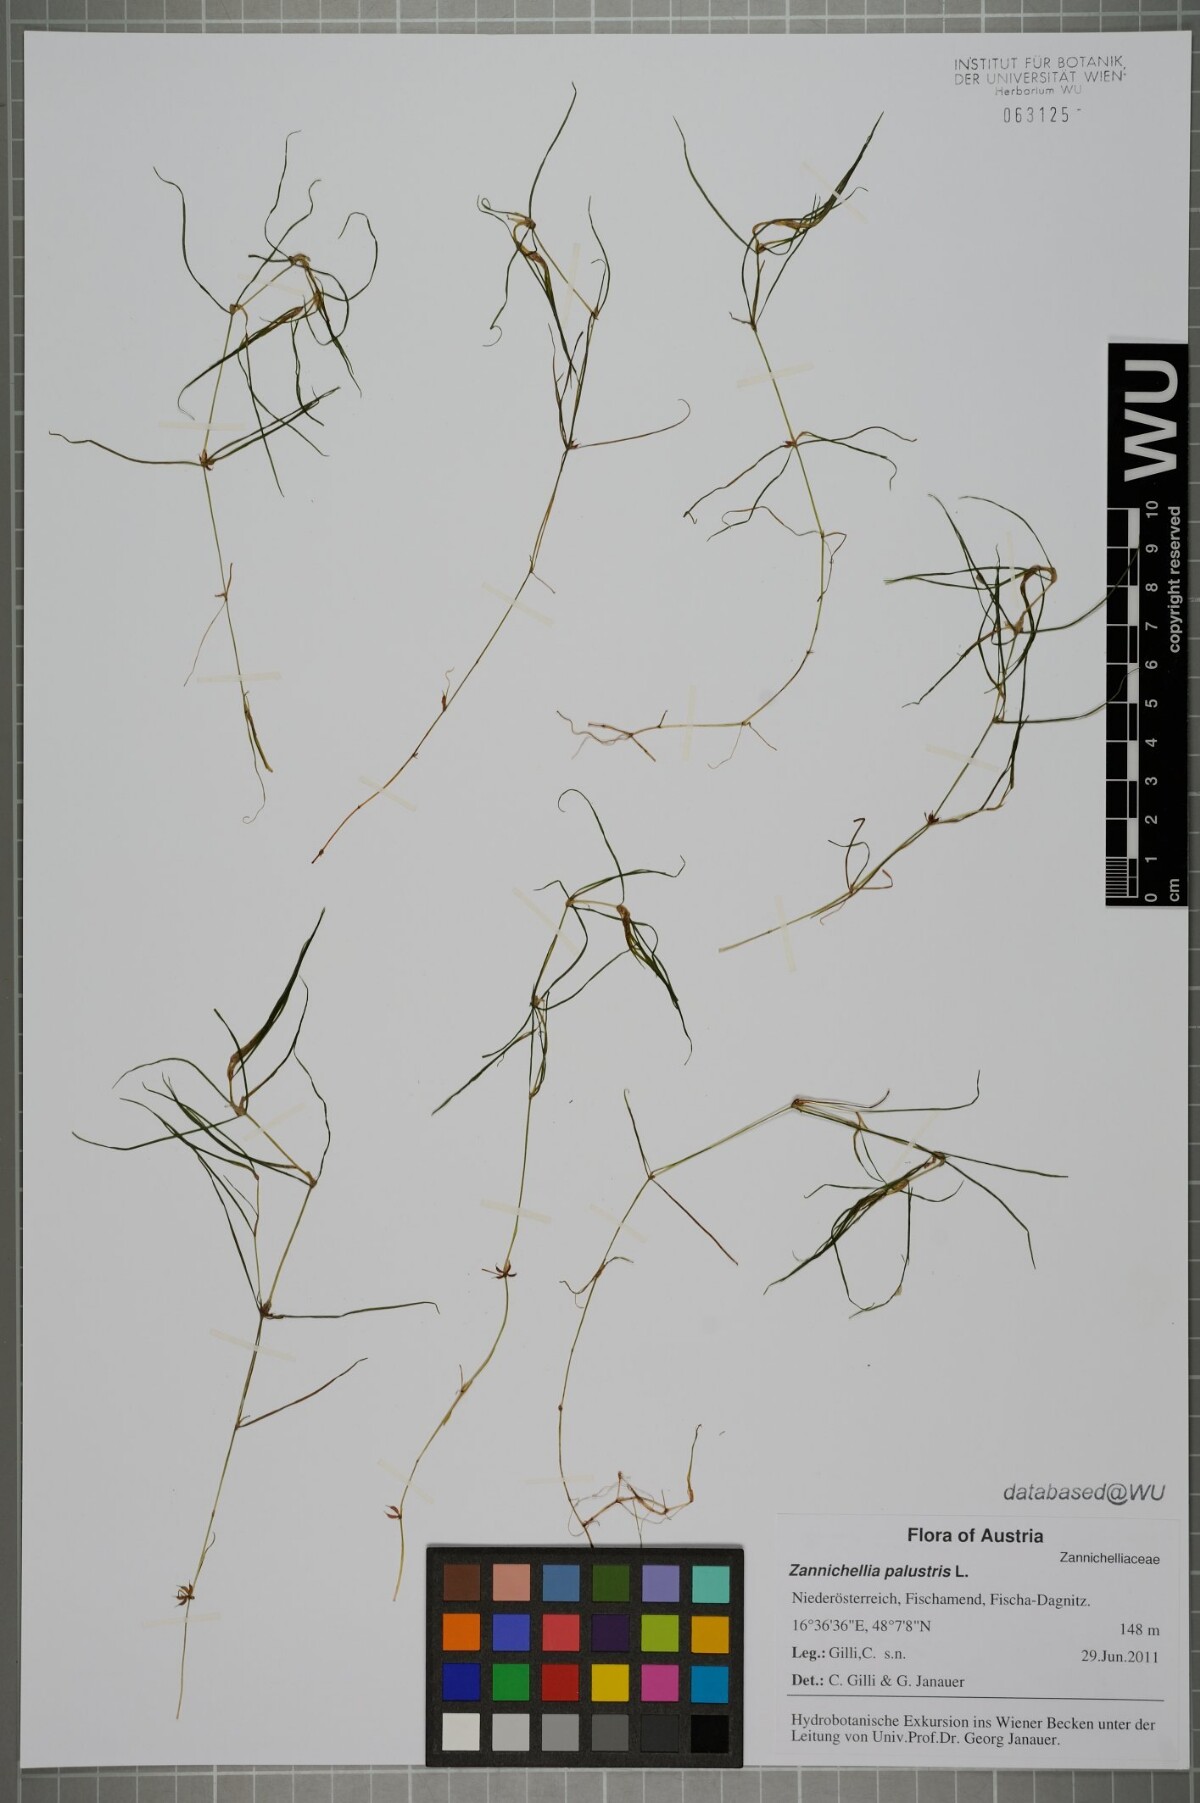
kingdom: Plantae
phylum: Tracheophyta
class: Liliopsida
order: Alismatales
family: Potamogetonaceae
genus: Zannichellia
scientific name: Zannichellia palustris
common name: Horned pondweed
